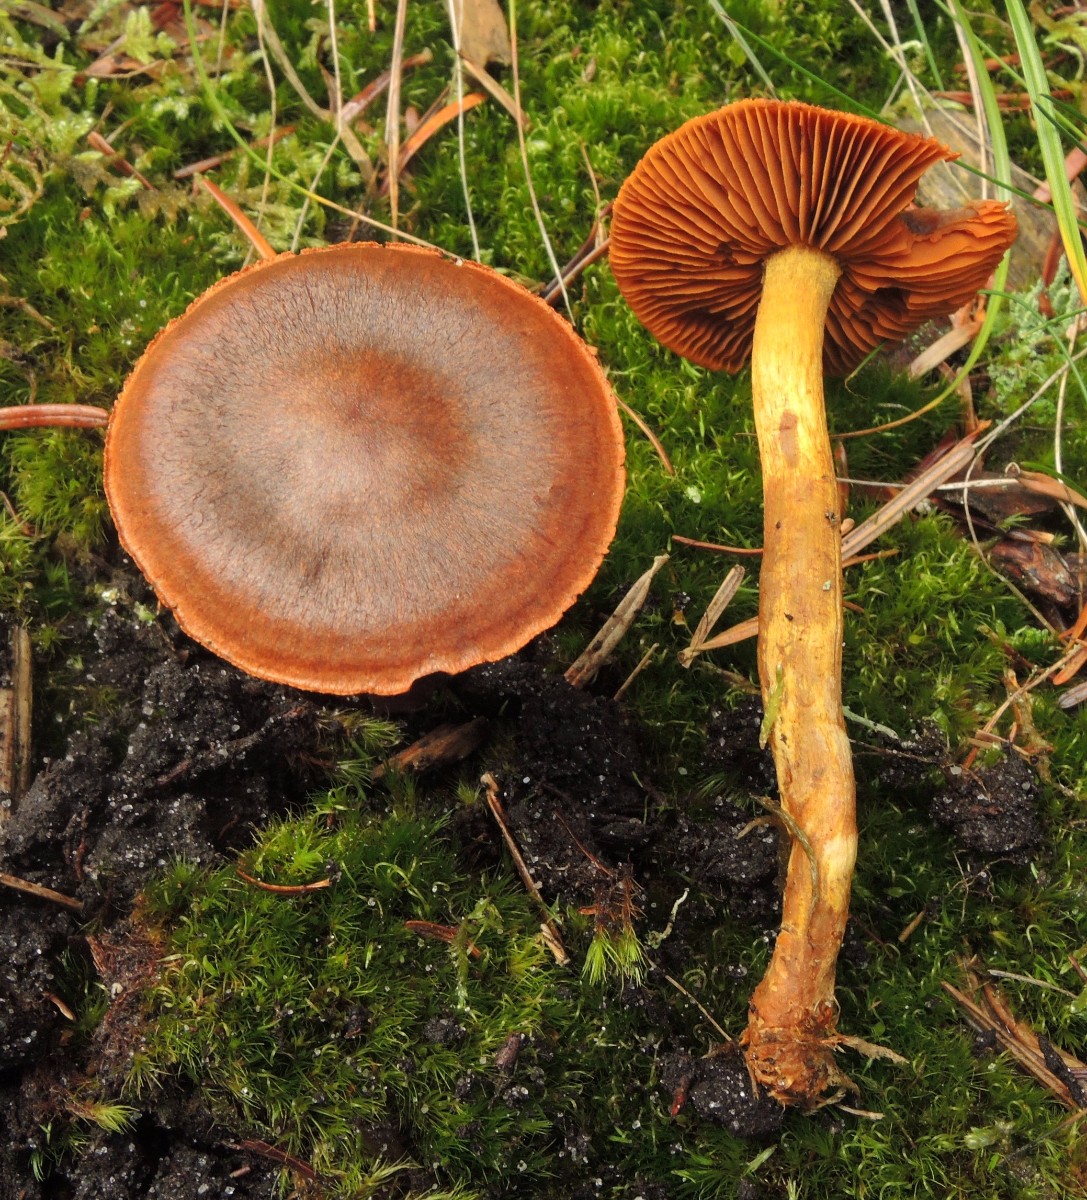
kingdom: Fungi
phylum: Basidiomycota
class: Agaricomycetes
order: Agaricales
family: Cortinariaceae
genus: Cortinarius
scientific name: Cortinarius malicorius
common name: grønkødet slørhat
